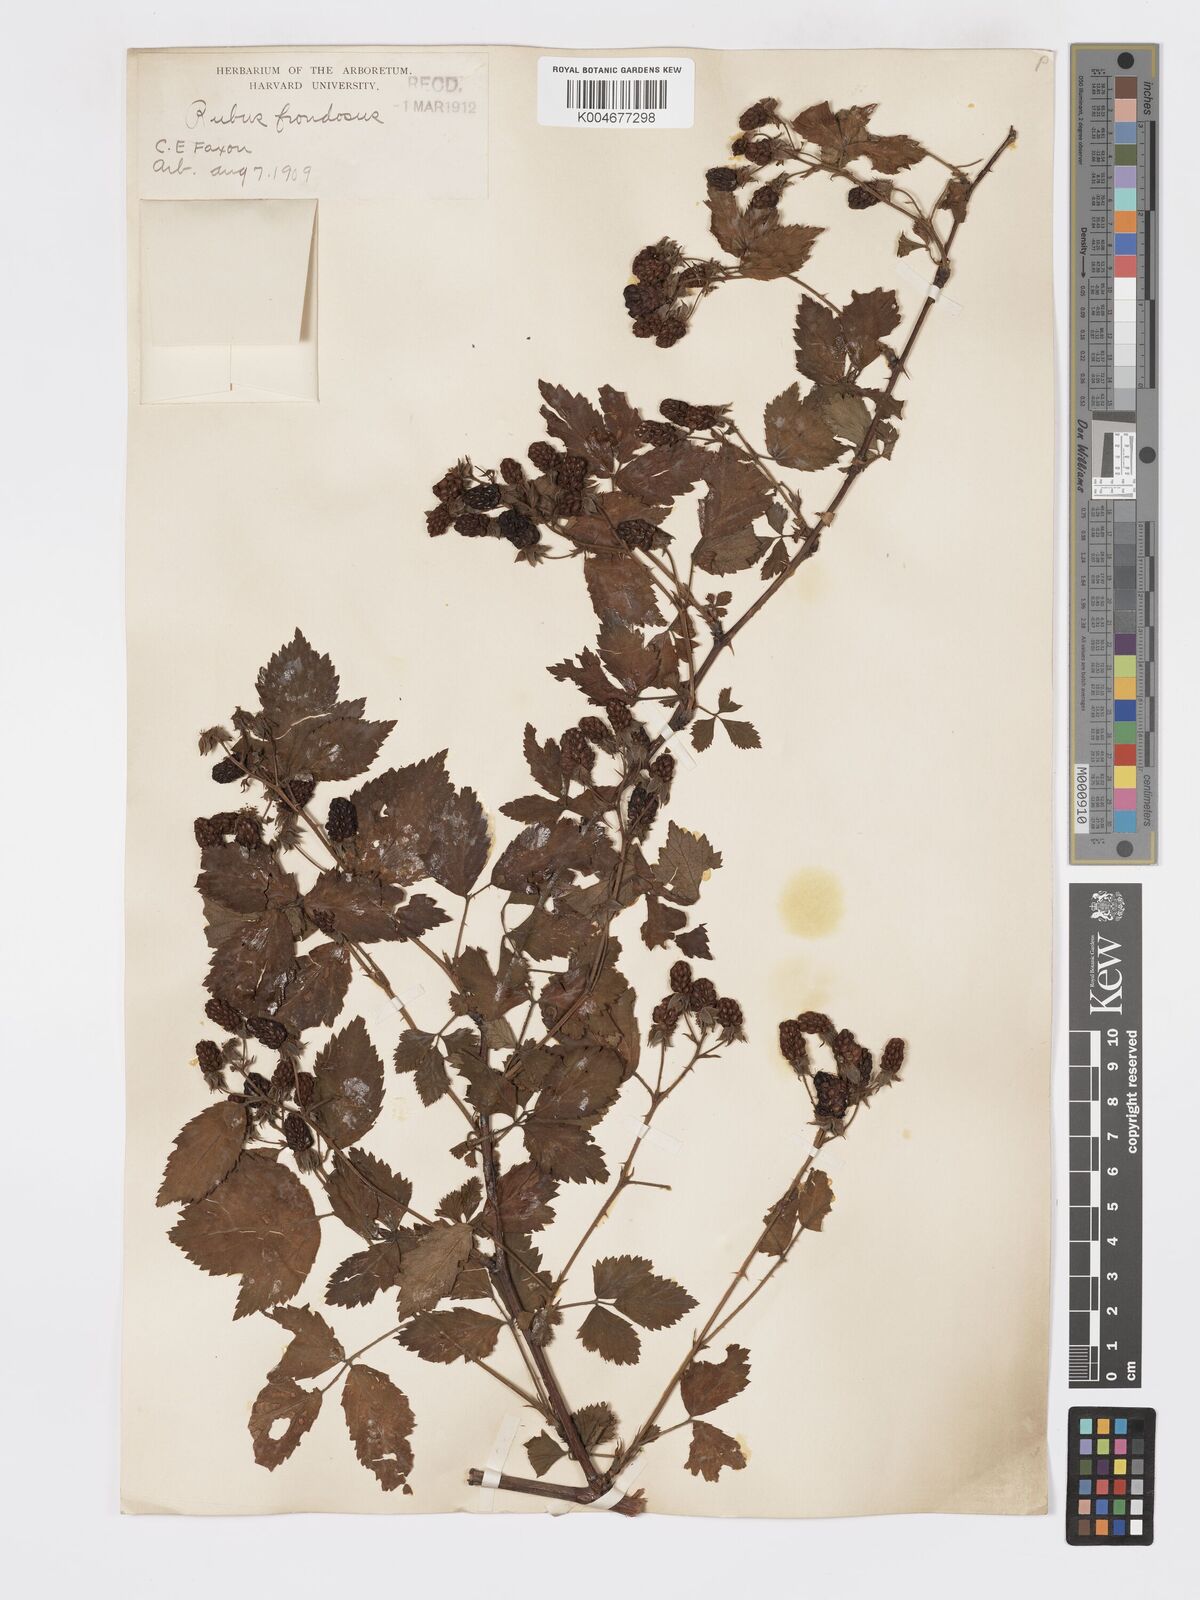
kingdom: Plantae
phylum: Tracheophyta
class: Magnoliopsida
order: Rosales
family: Rosaceae
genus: Rubus
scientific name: Rubus frondosus
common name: Yankee blackberry
